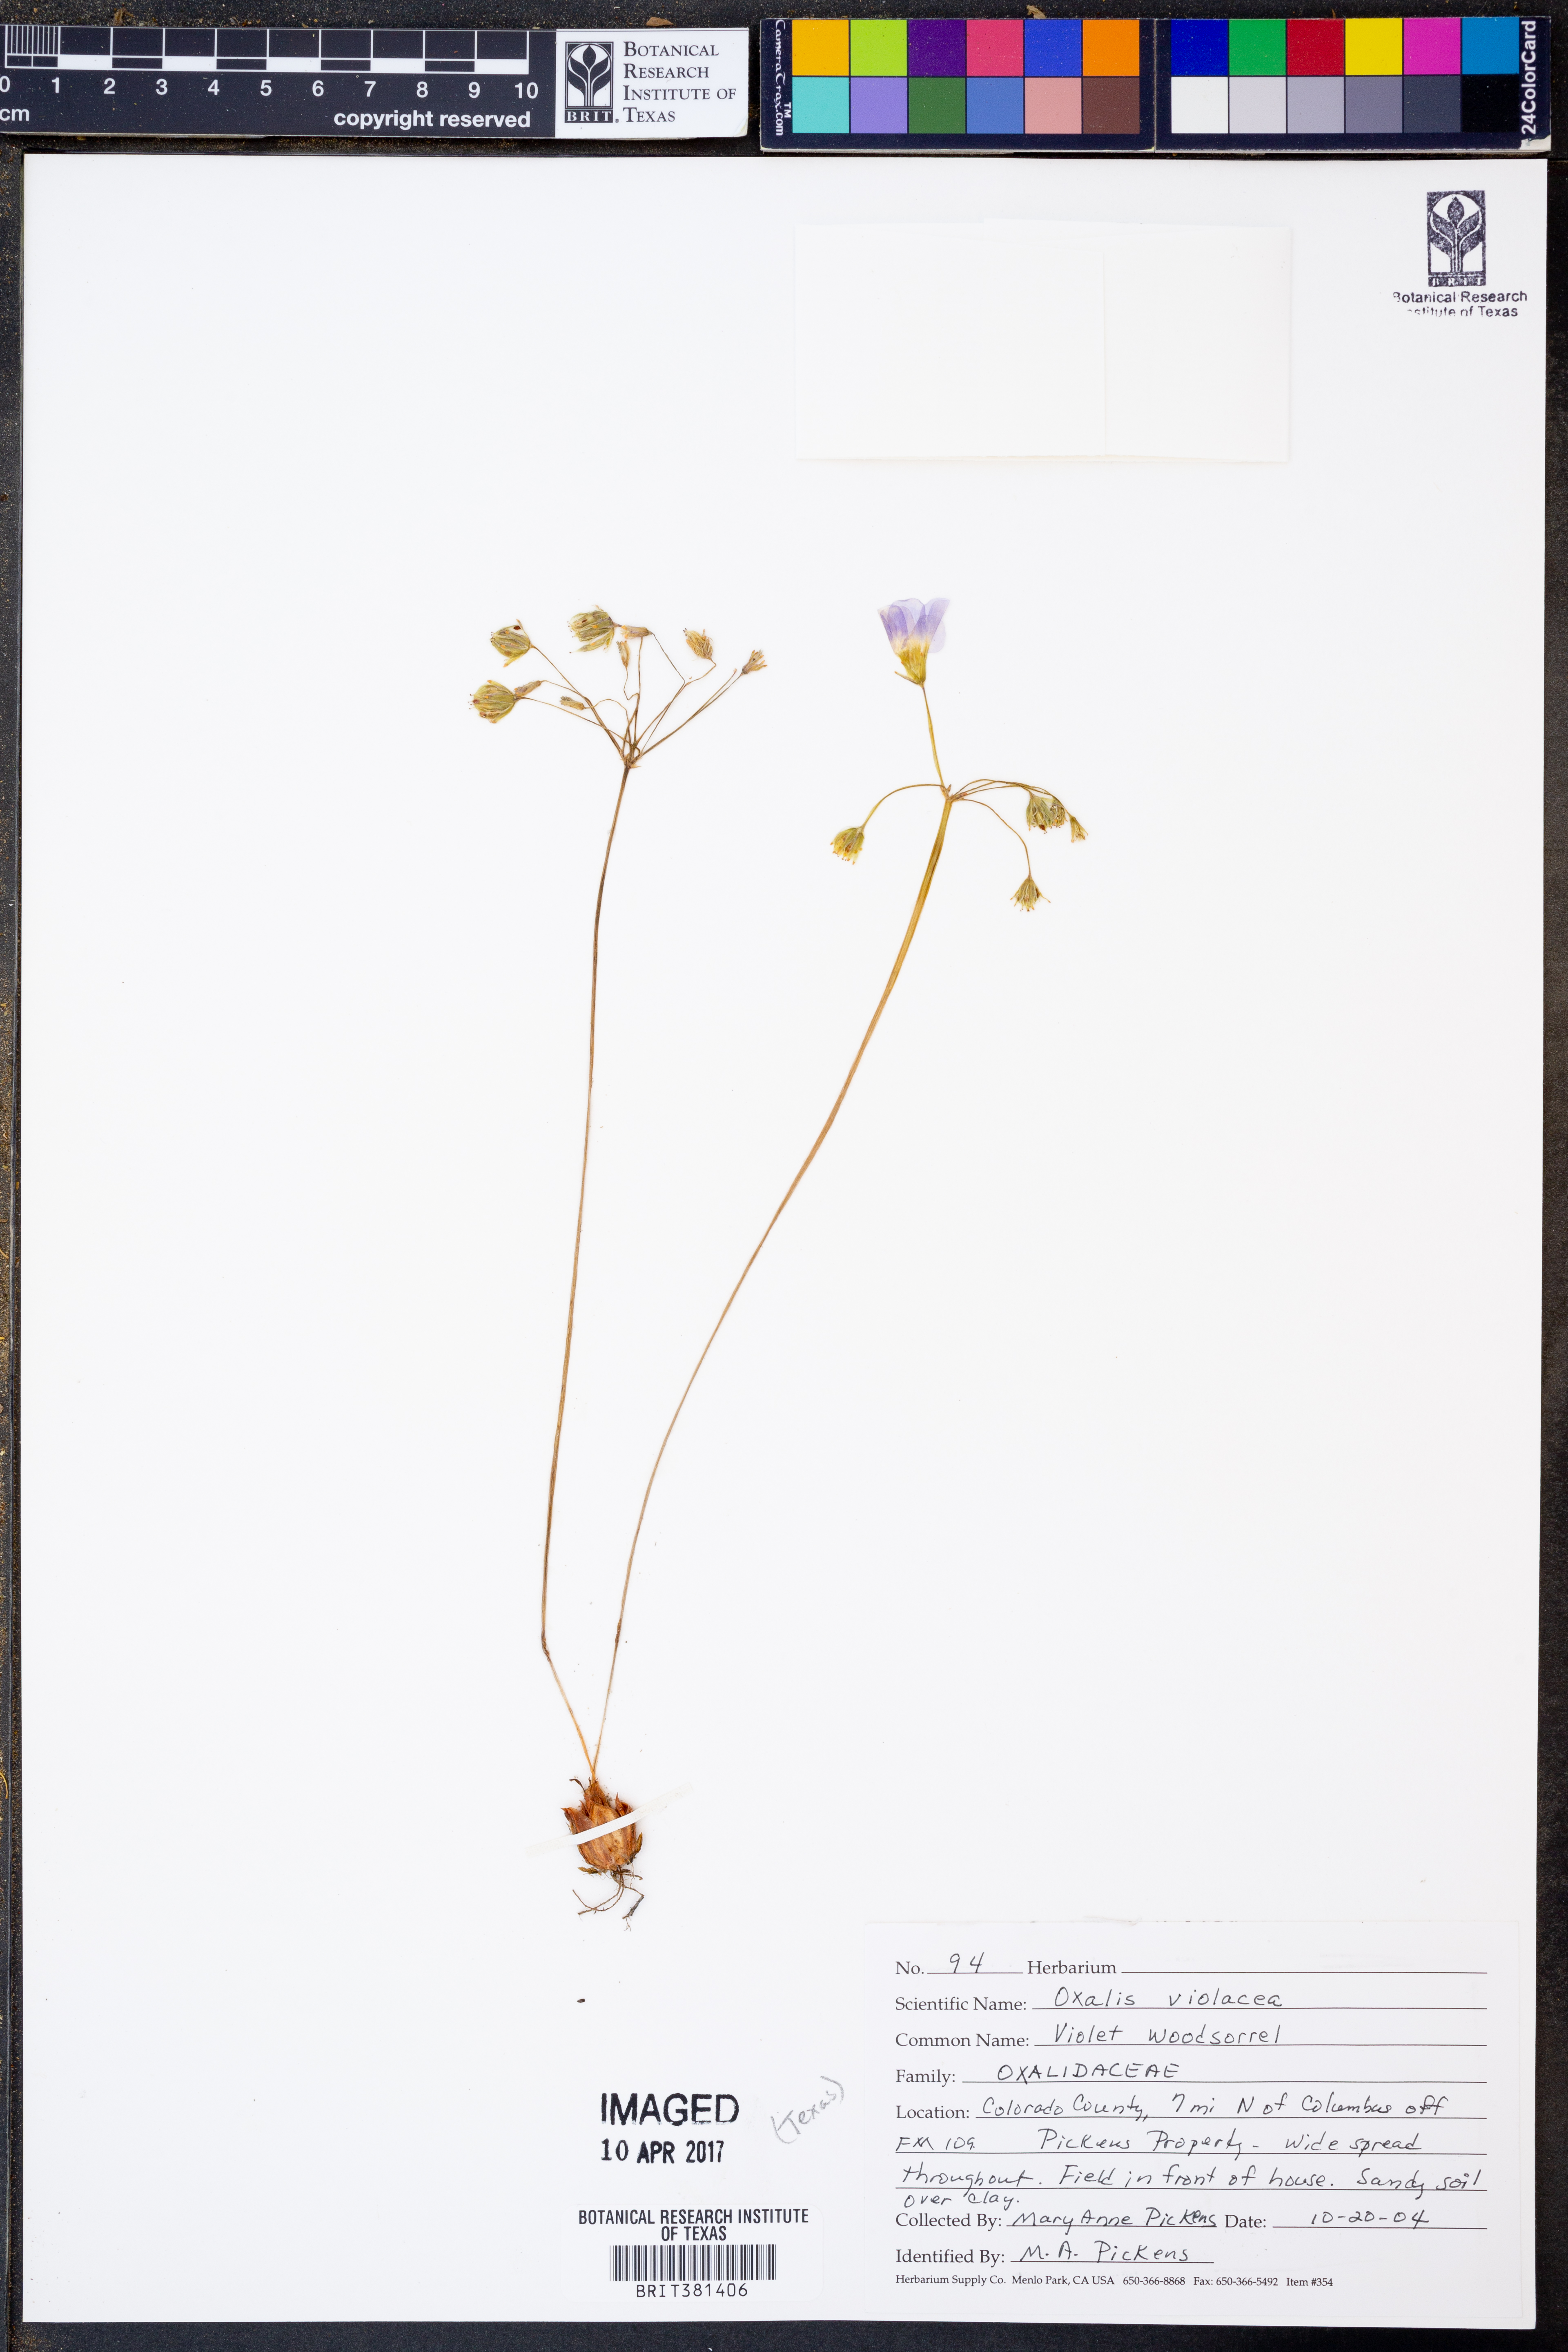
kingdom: Plantae
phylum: Tracheophyta
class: Magnoliopsida
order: Oxalidales
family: Oxalidaceae
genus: Oxalis
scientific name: Oxalis violacea
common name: Violet wood-sorrel
